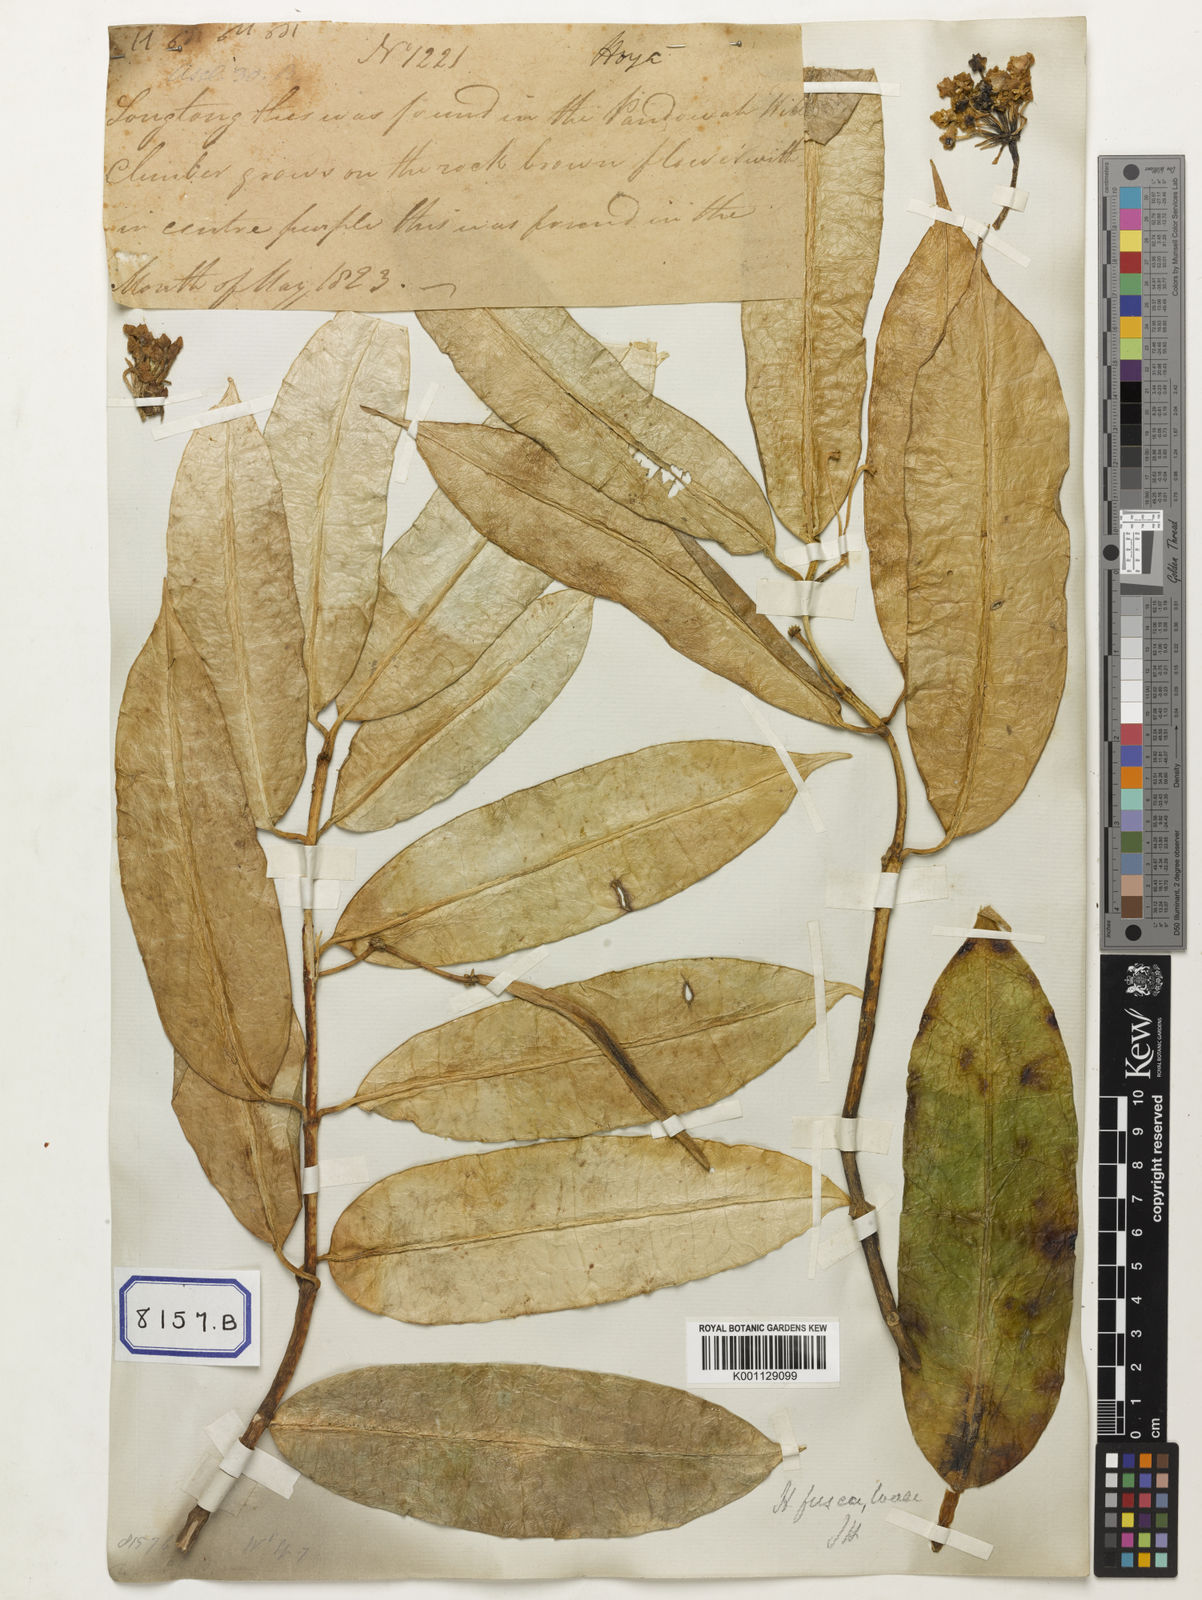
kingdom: Plantae
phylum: Tracheophyta
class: Magnoliopsida
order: Gentianales
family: Apocynaceae
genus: Hoya
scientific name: Hoya fusca
